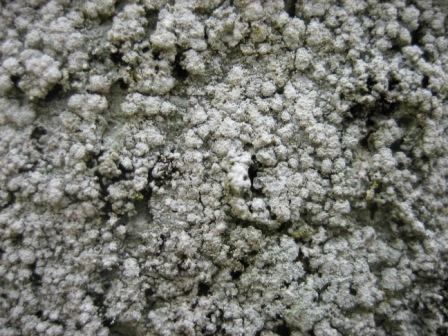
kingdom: Fungi
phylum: Ascomycota
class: Lecanoromycetes
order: Pertusariales
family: Pertusariaceae
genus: Lepra
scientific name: Lepra amara
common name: bitter prikvortelav
